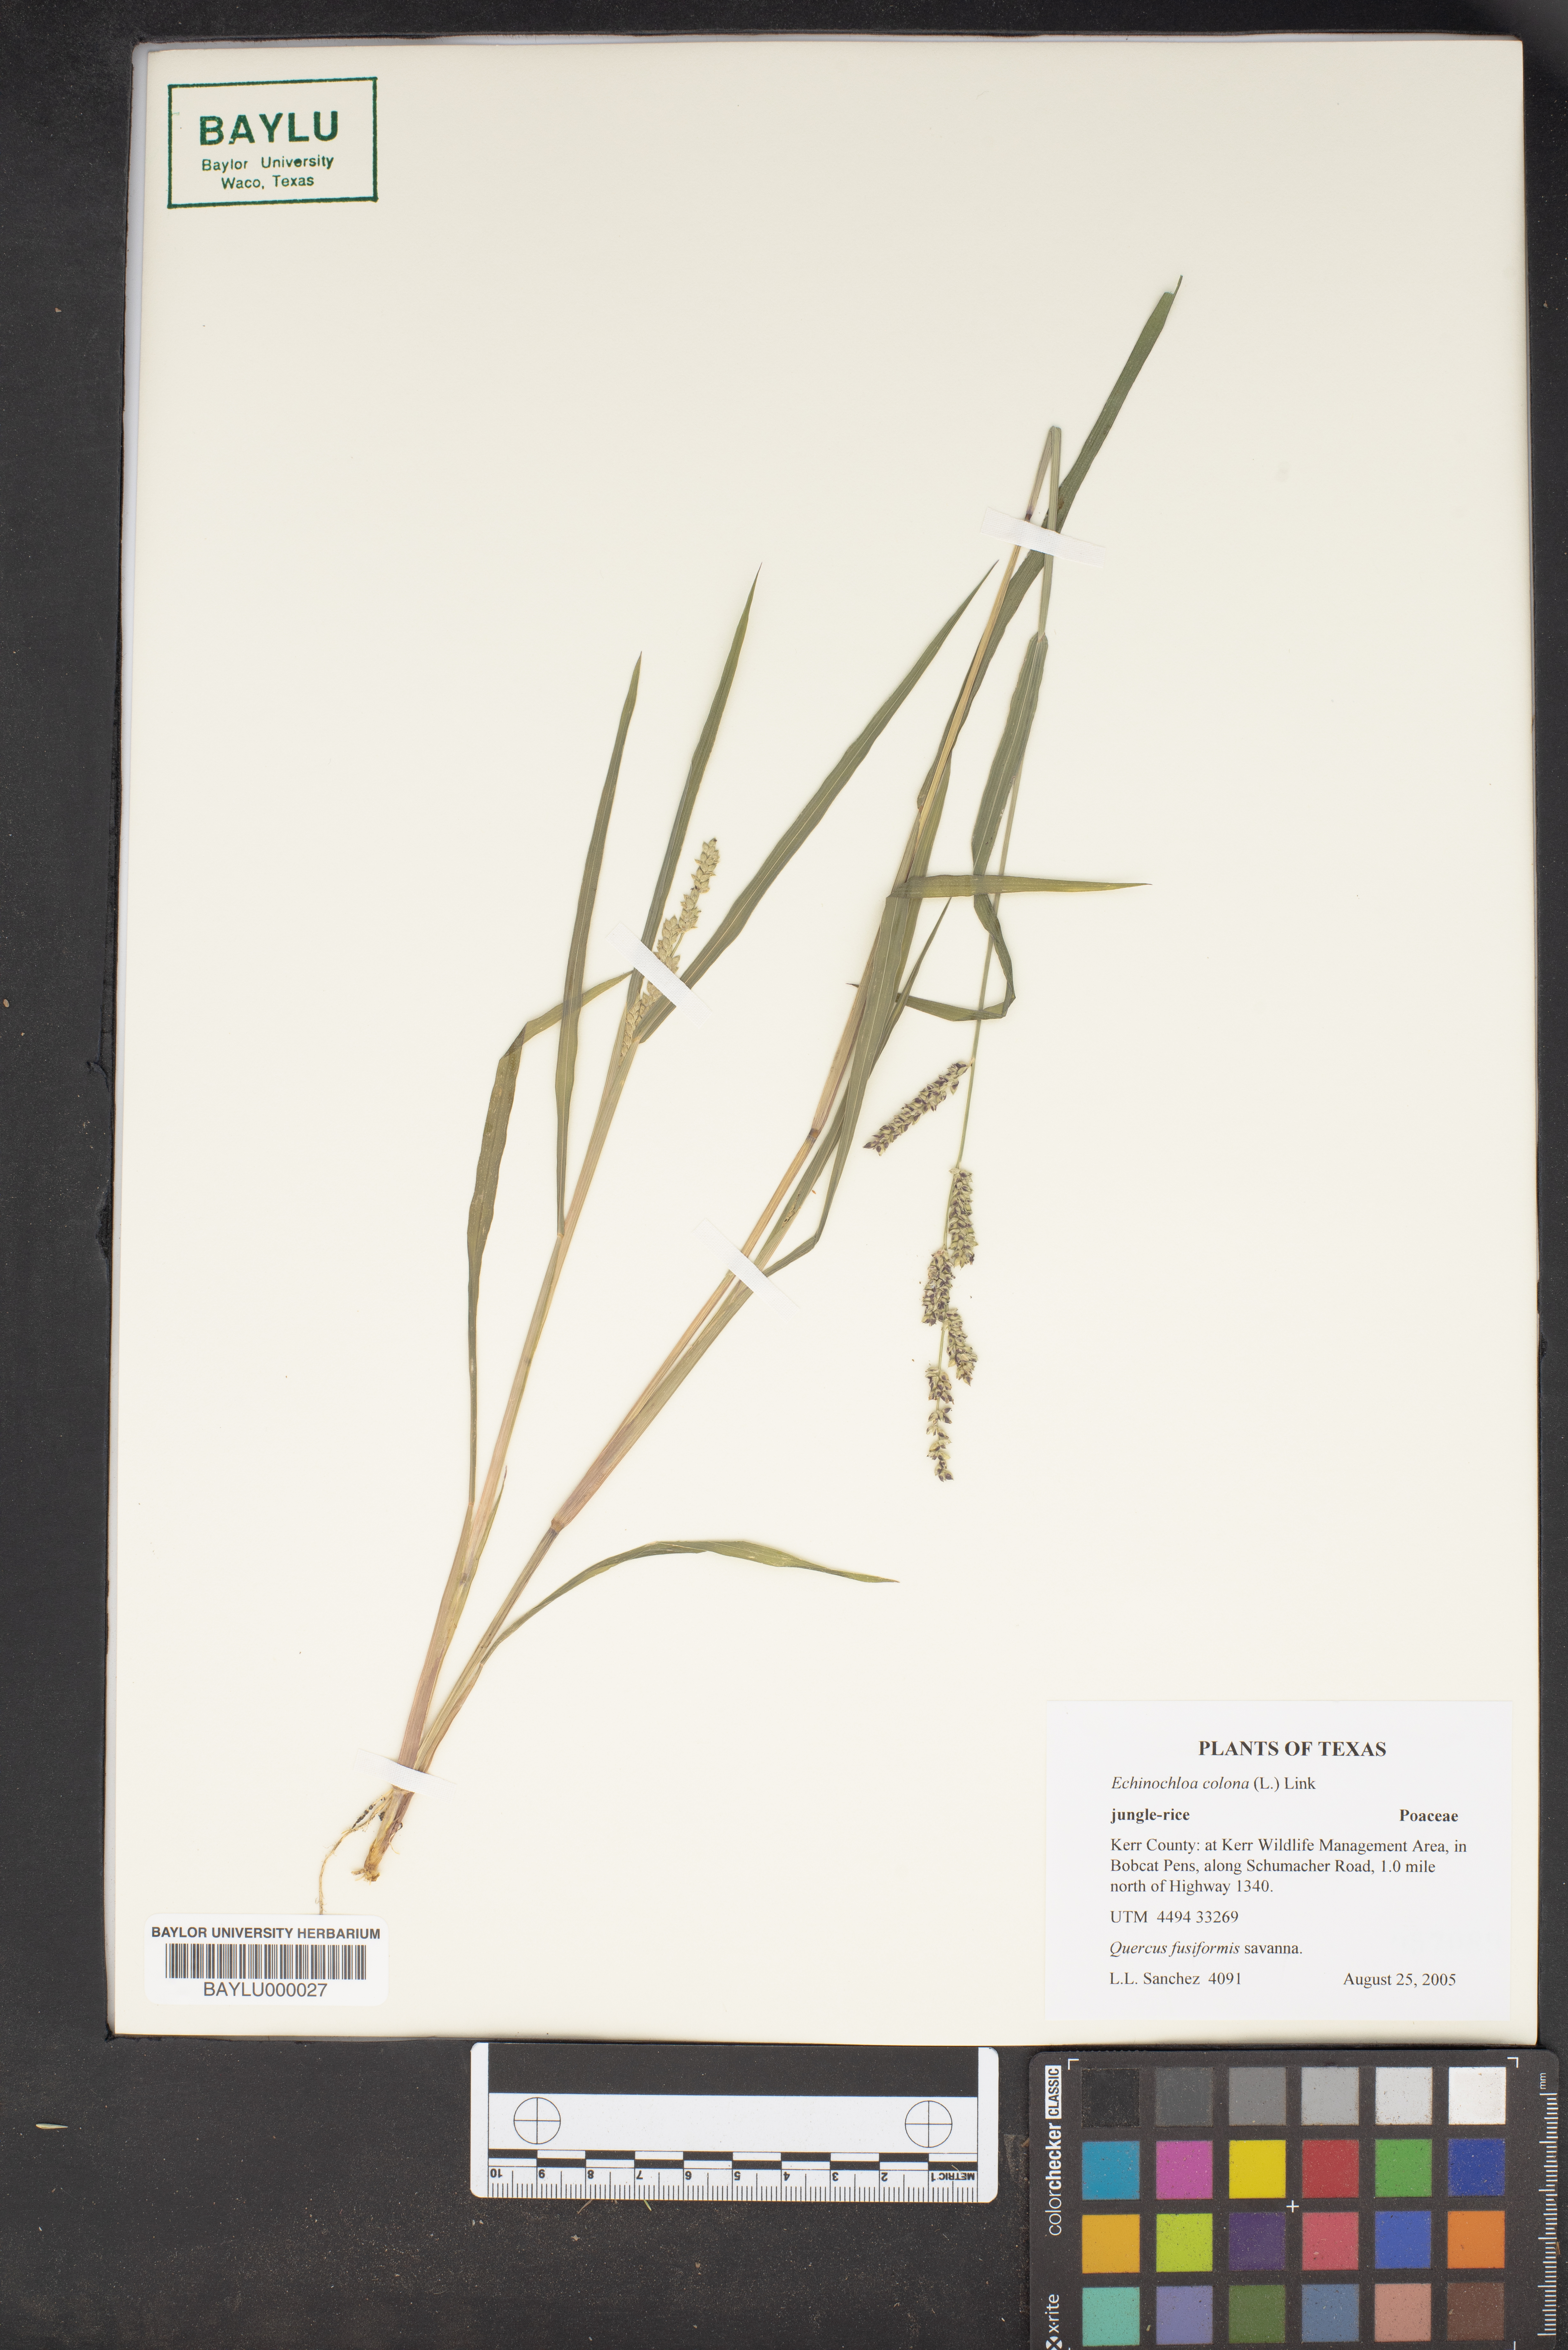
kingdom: Plantae
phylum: Tracheophyta
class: Liliopsida
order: Poales
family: Poaceae
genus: Echinochloa
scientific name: Echinochloa colonum
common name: Jungle rice
